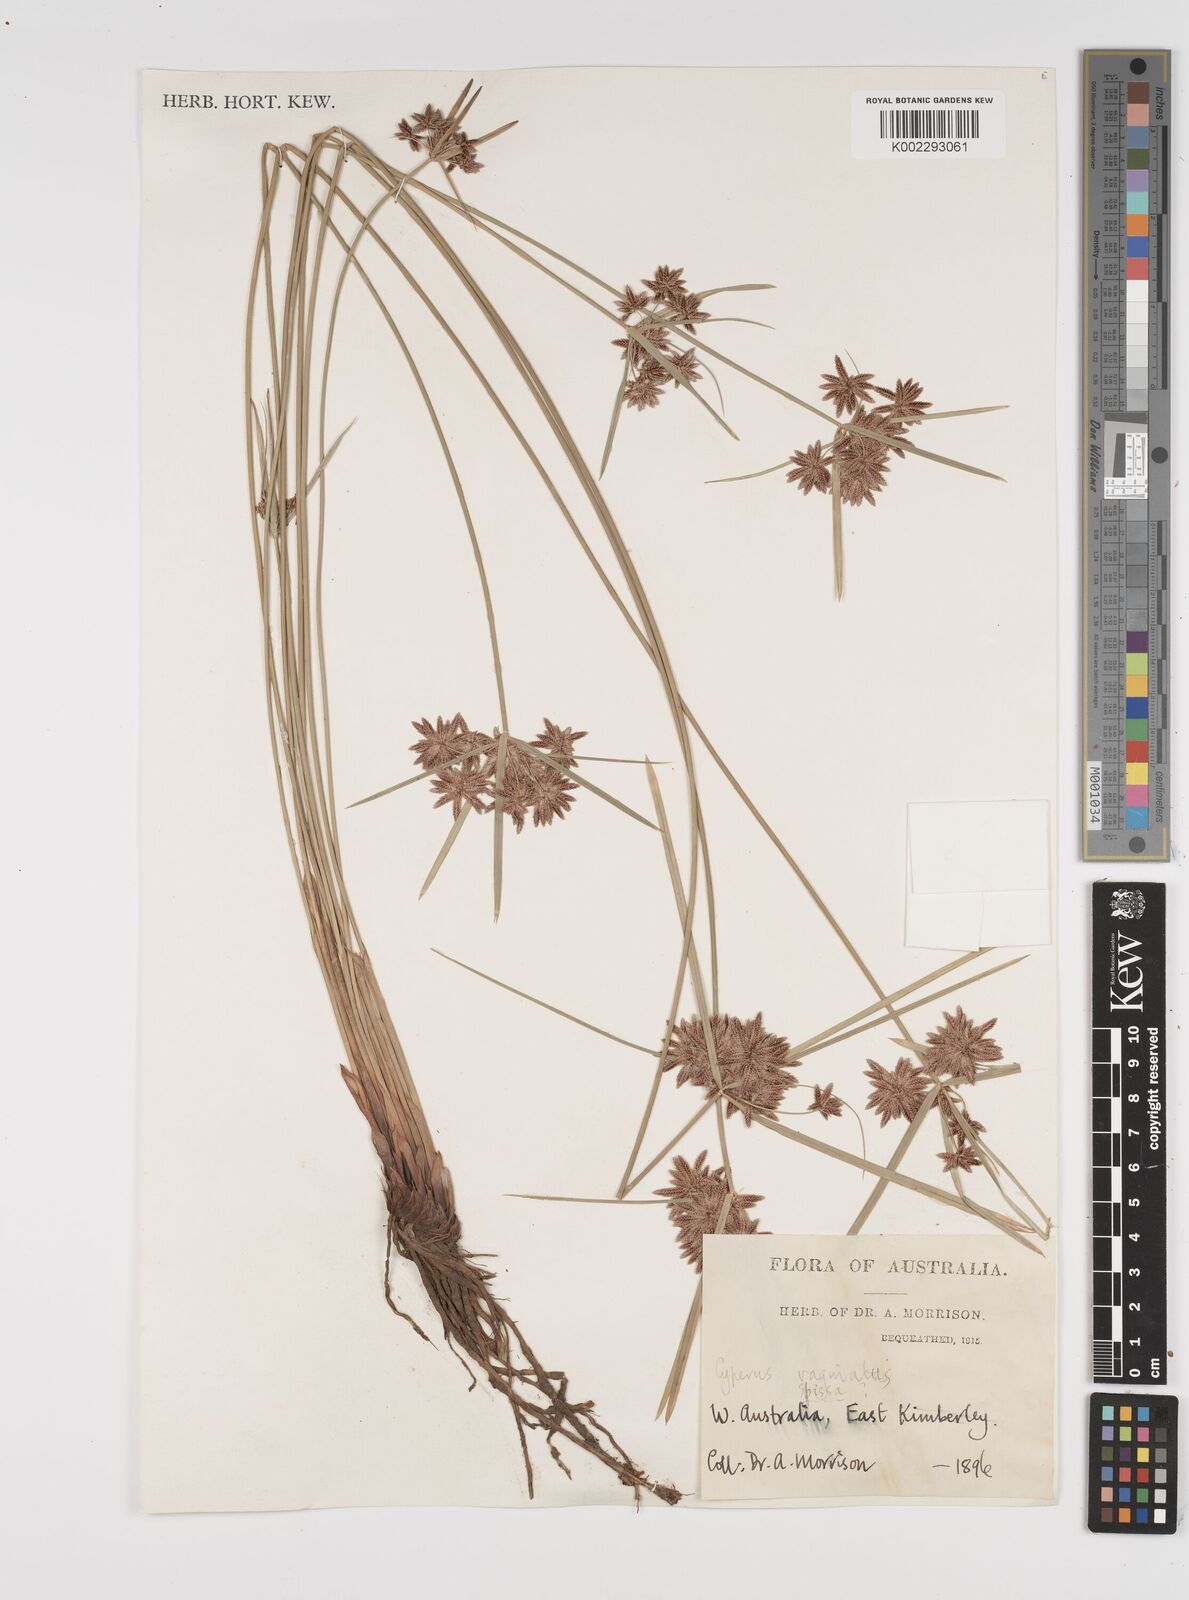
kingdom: Plantae
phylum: Tracheophyta
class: Liliopsida
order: Poales
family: Cyperaceae
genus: Cyperus
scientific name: Cyperus vaginatus
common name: Stiff-leaved flat-sedge
